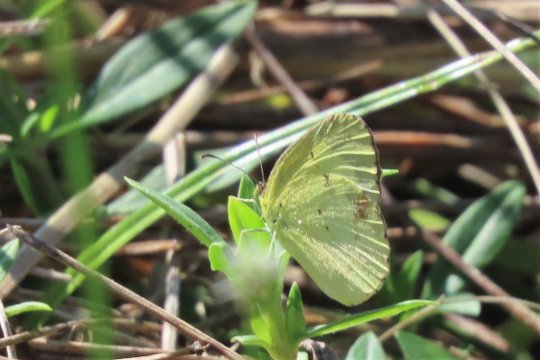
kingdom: Animalia
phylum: Arthropoda
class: Insecta
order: Lepidoptera
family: Pieridae
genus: Pyrisitia
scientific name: Pyrisitia lisa
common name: Little Yellow
